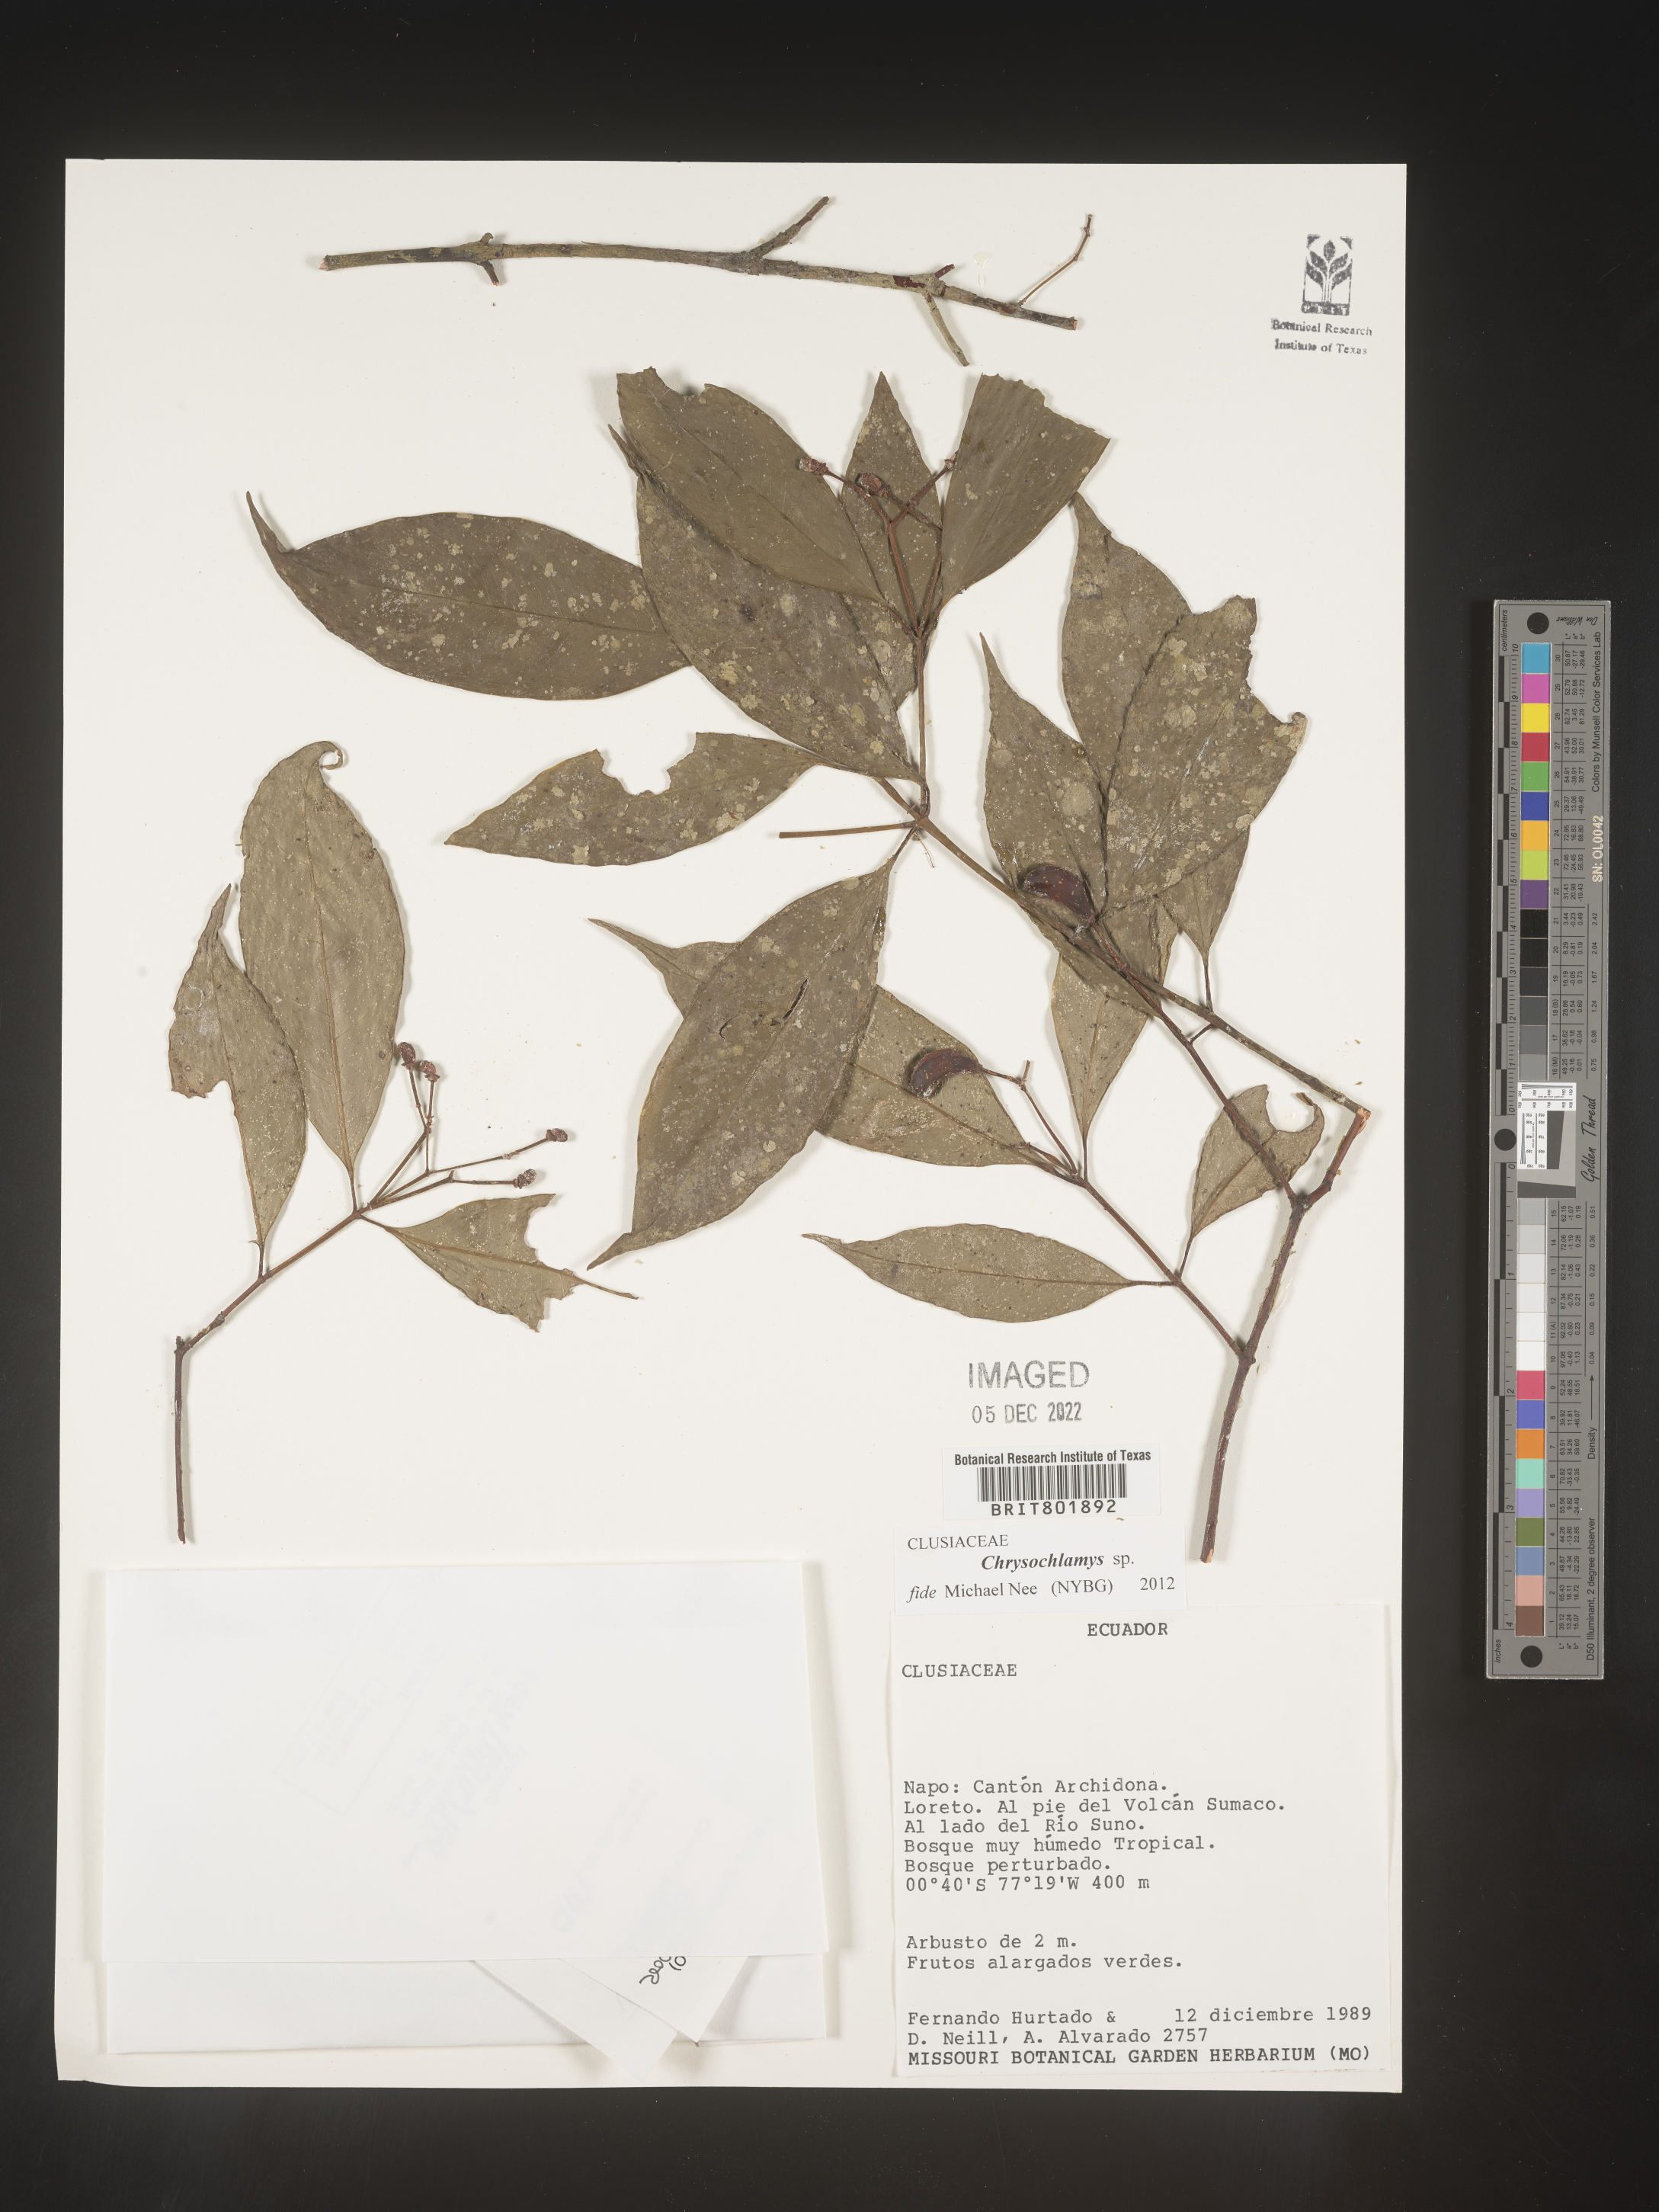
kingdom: Plantae
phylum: Tracheophyta
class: Magnoliopsida
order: Malpighiales
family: Clusiaceae
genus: Chrysochlamys
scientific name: Chrysochlamys
